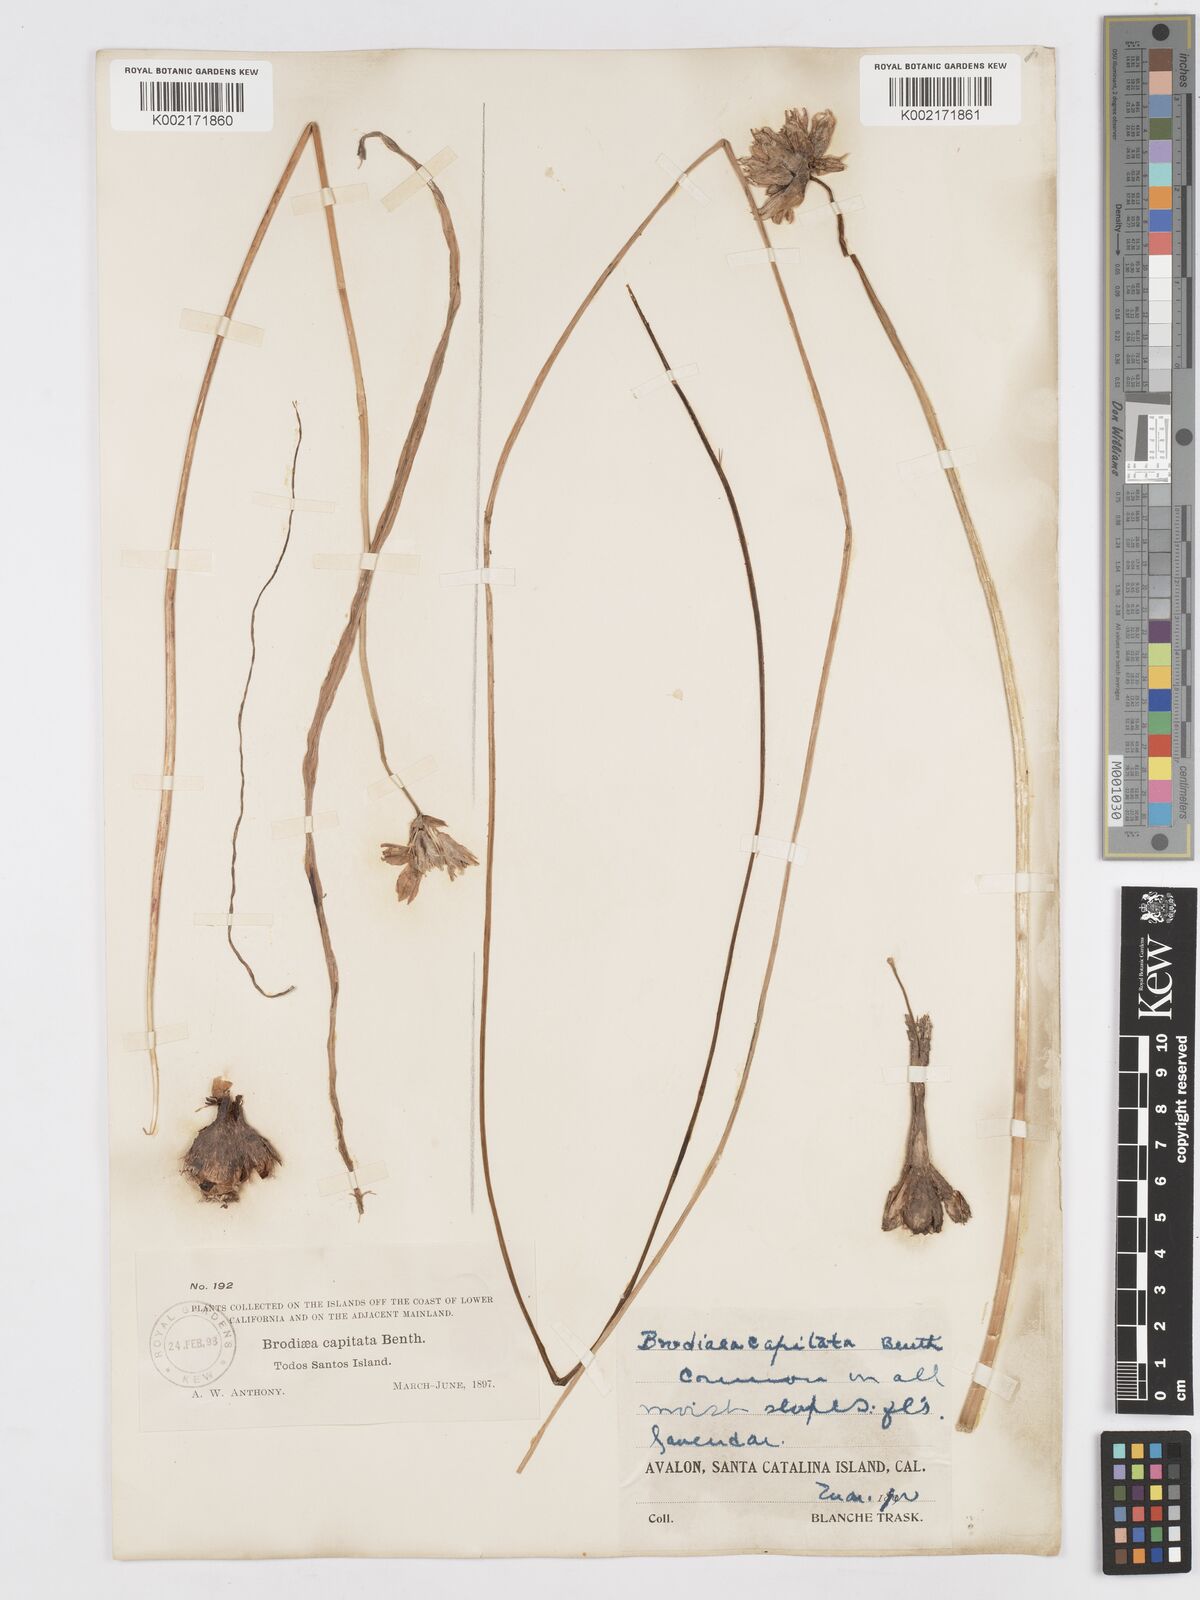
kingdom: Plantae
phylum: Tracheophyta
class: Liliopsida
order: Asparagales
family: Asparagaceae
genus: Dichelostemma
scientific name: Dichelostemma congestum
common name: Fork-tooth ookow
